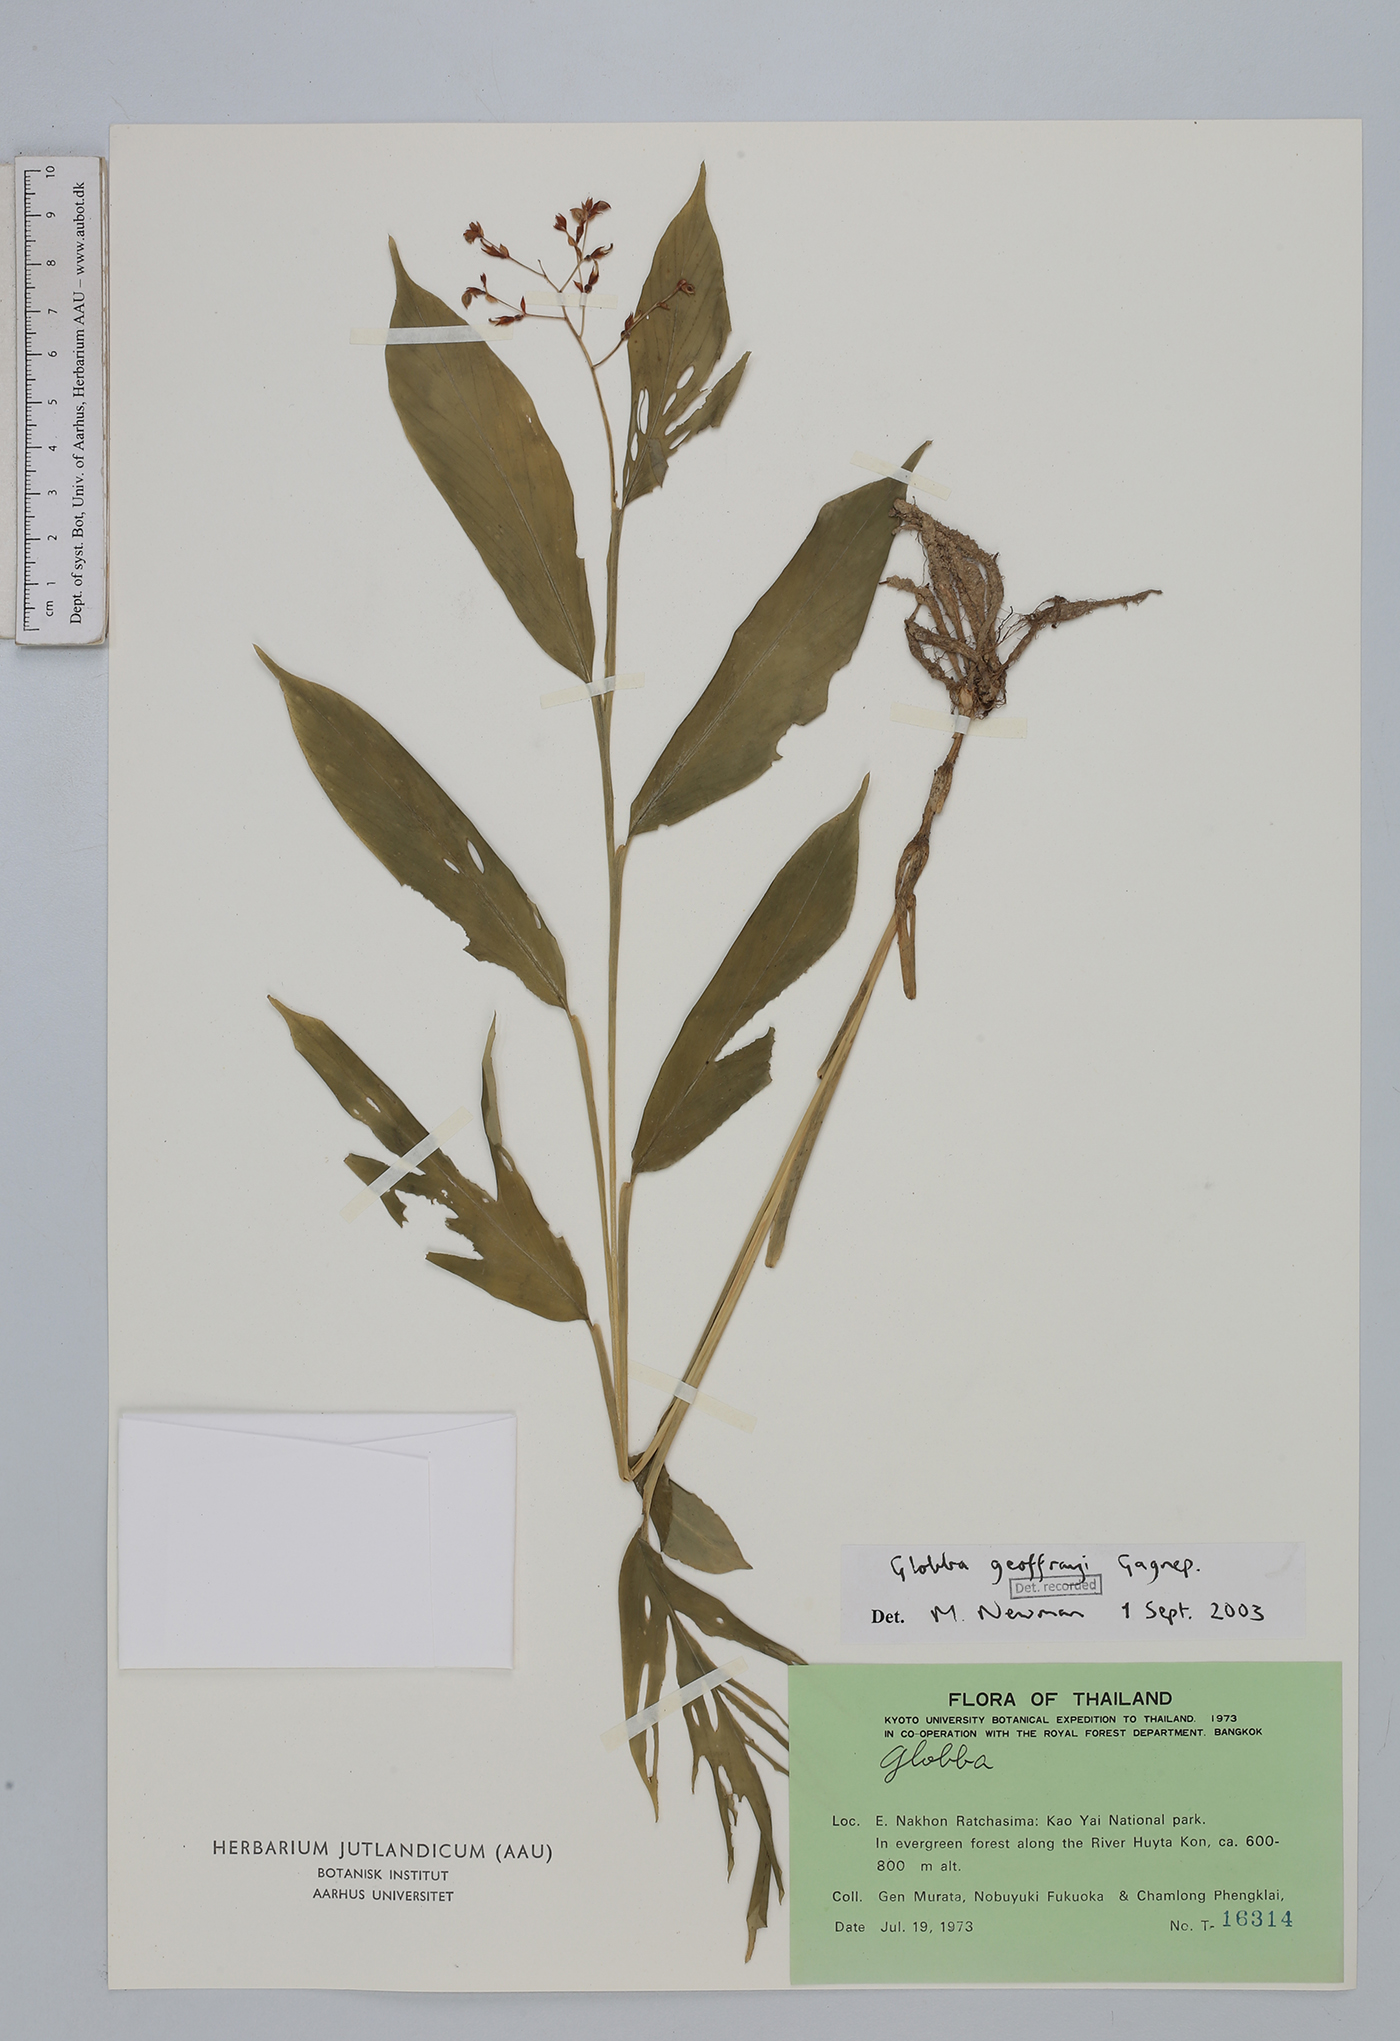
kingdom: Plantae
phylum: Tracheophyta
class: Liliopsida
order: Zingiberales
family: Zingiberaceae
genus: Globba
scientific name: Globba geoffrayi
